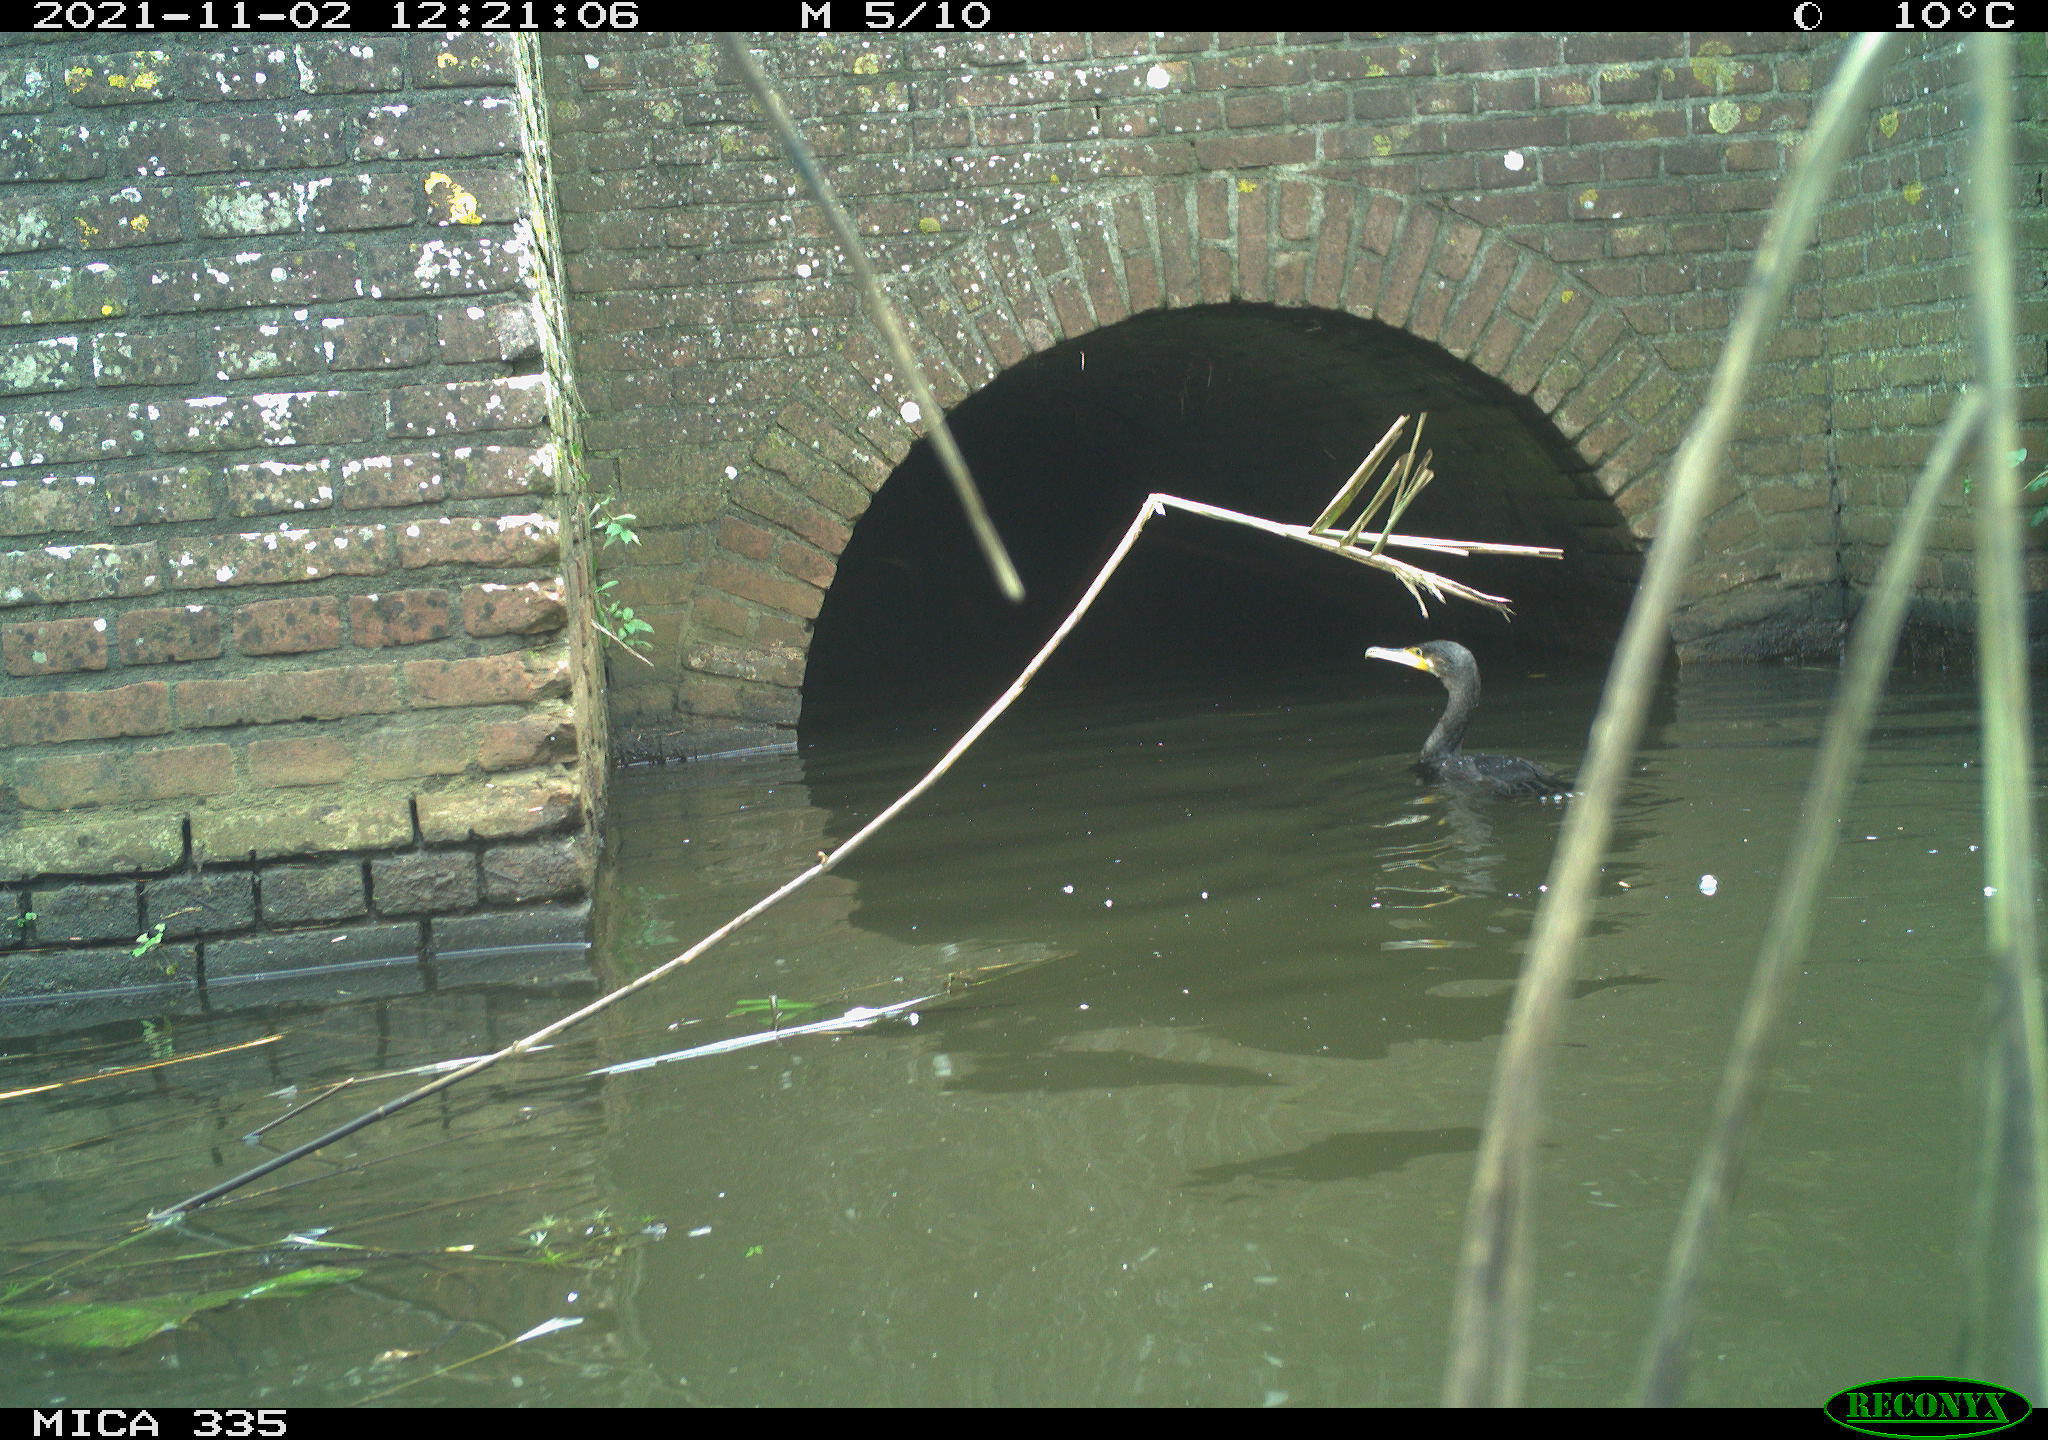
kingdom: Animalia
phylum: Chordata
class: Aves
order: Suliformes
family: Phalacrocoracidae
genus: Phalacrocorax
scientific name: Phalacrocorax carbo
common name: Great cormorant
